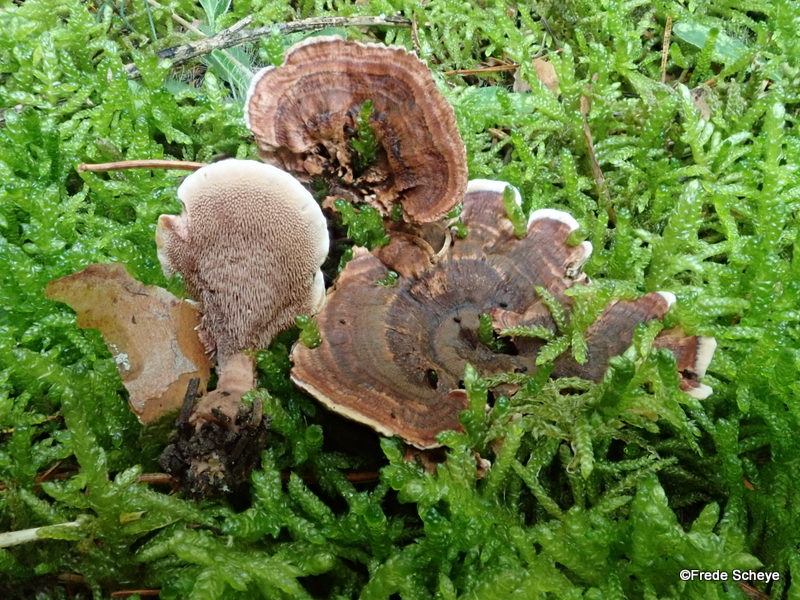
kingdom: Fungi
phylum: Basidiomycota
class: Agaricomycetes
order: Thelephorales
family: Bankeraceae
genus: Hydnellum
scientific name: Hydnellum concrescens
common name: bæltet korkpigsvamp
